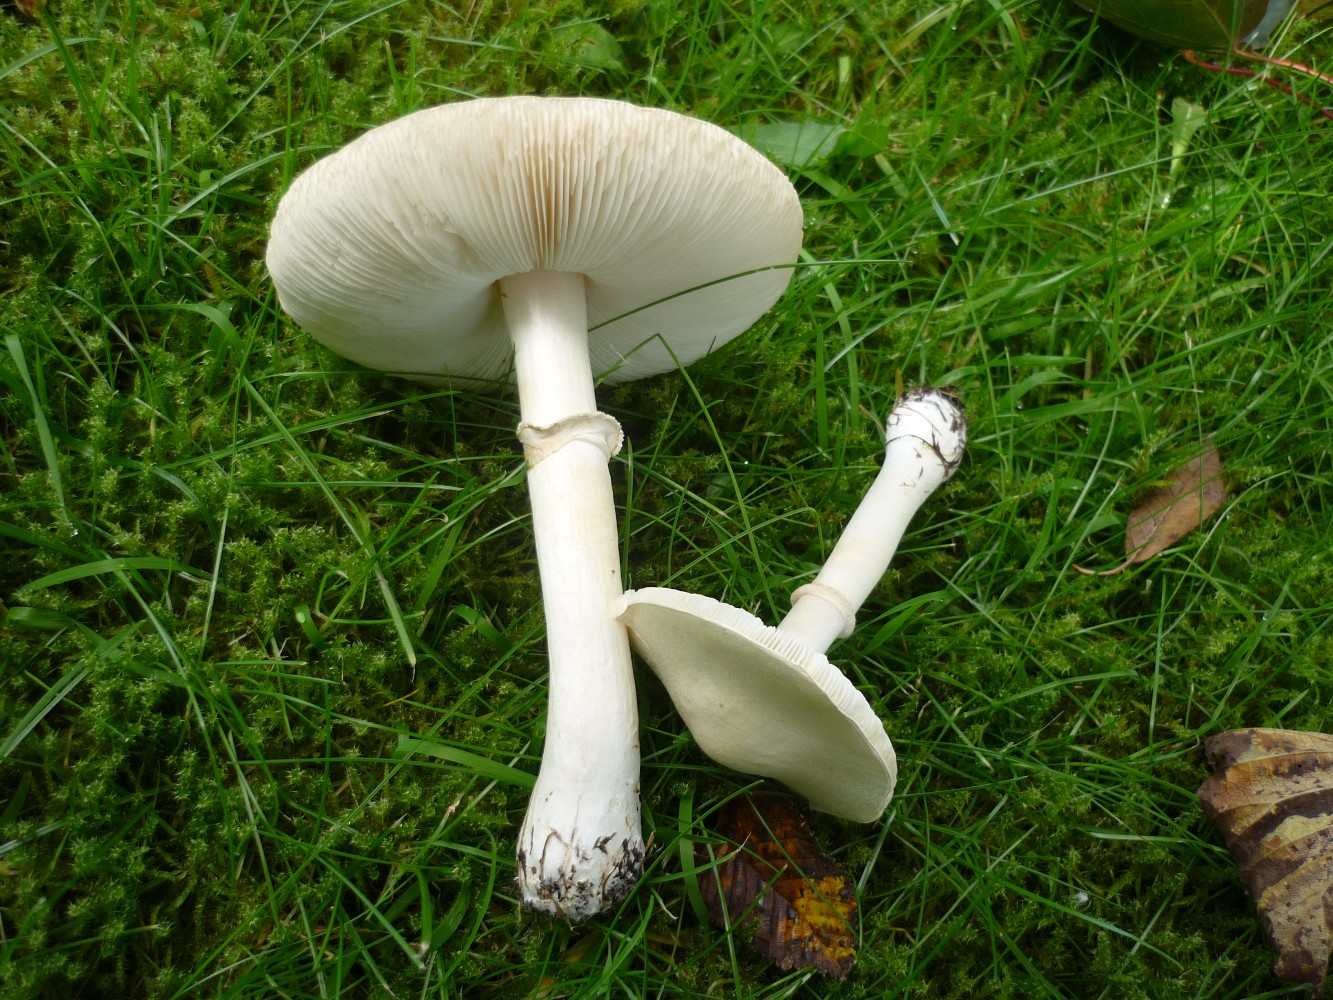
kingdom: Fungi
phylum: Basidiomycota
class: Agaricomycetes
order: Agaricales
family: Agaricaceae
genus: Leucoagaricus
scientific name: Leucoagaricus leucothites
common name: rosabladet silkehat
